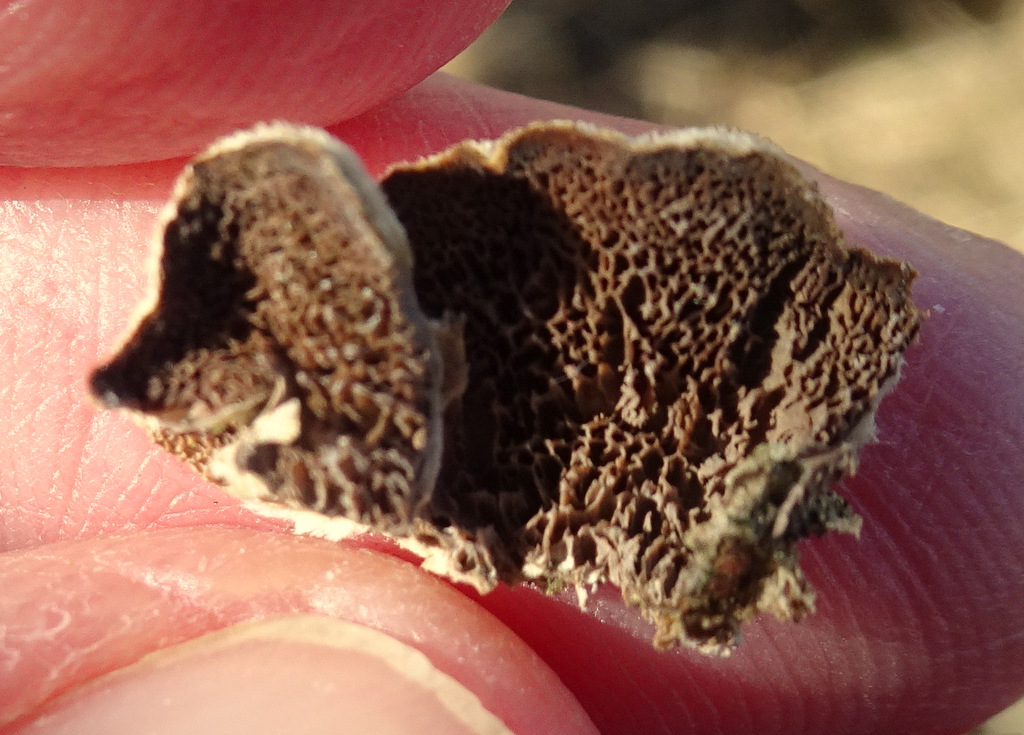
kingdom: Fungi
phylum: Basidiomycota
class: Agaricomycetes
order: Hymenochaetales
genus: Trichaptum
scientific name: Trichaptum abietinum
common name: almindelig violporesvamp
